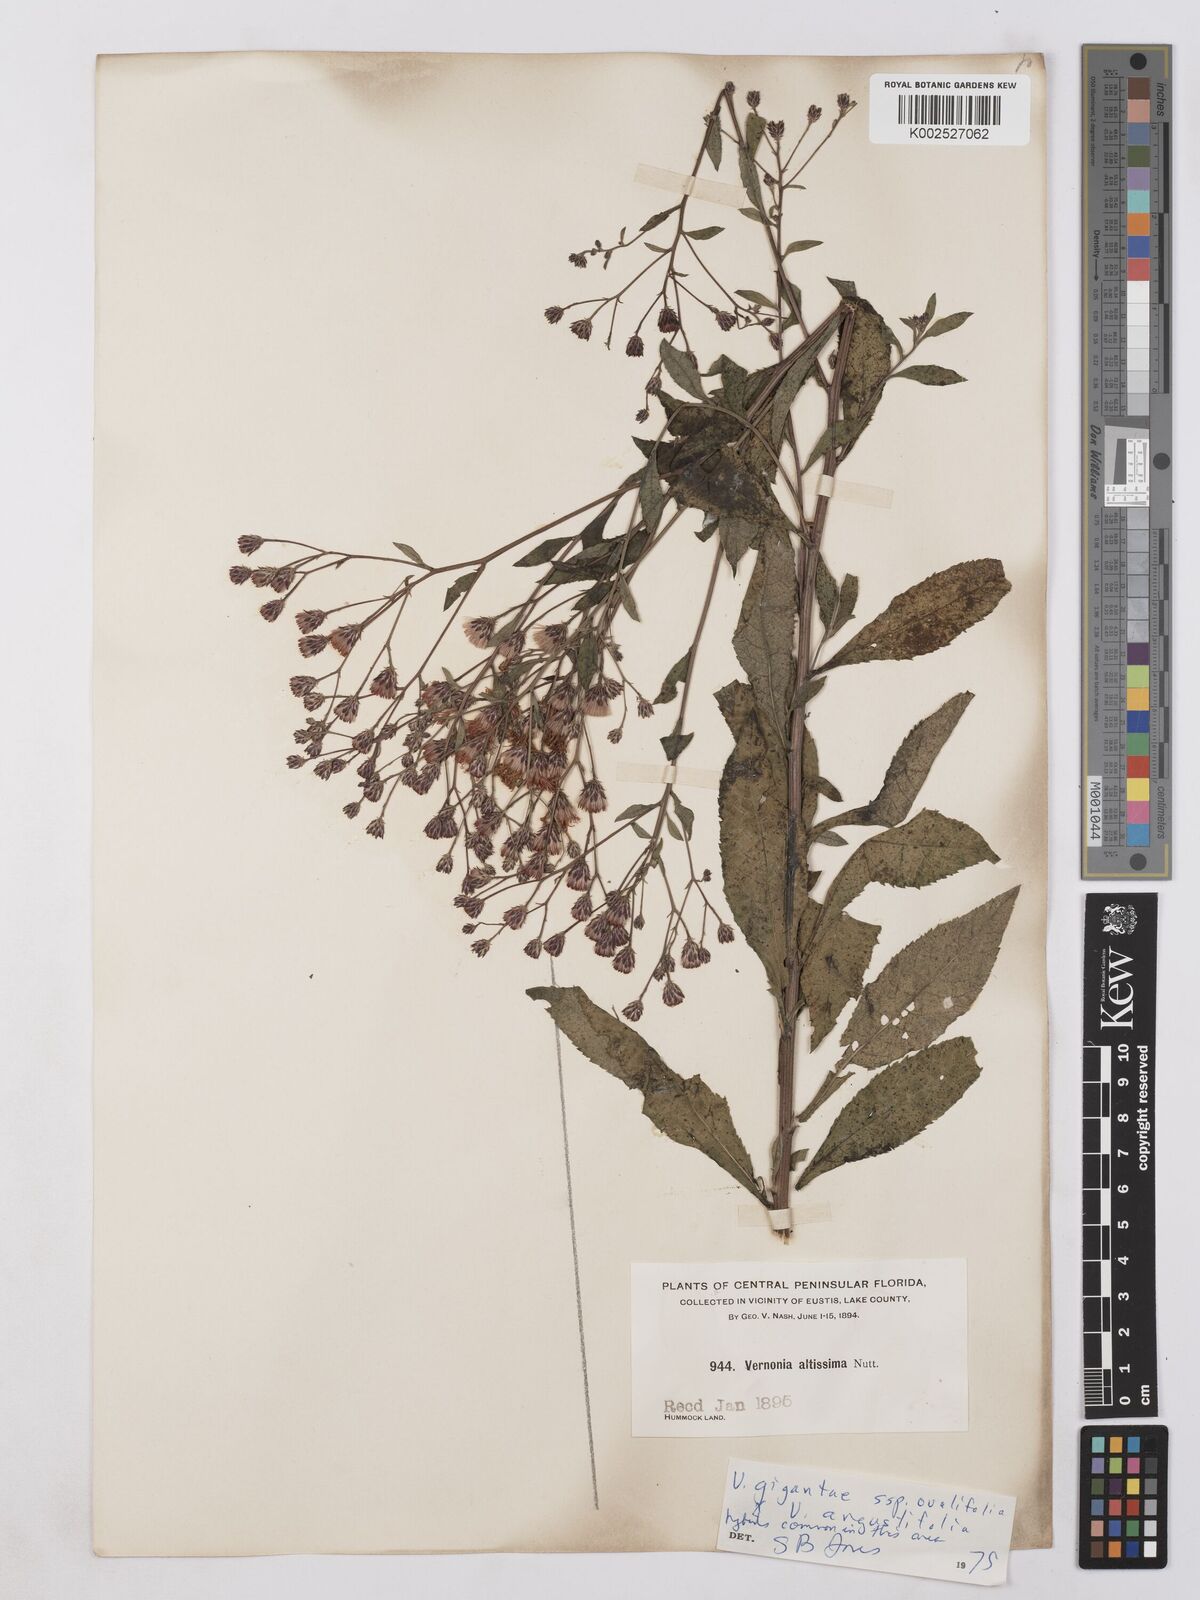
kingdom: Plantae
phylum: Tracheophyta
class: Magnoliopsida
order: Asterales
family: Asteraceae
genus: Vernonia
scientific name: Vernonia gigantea
